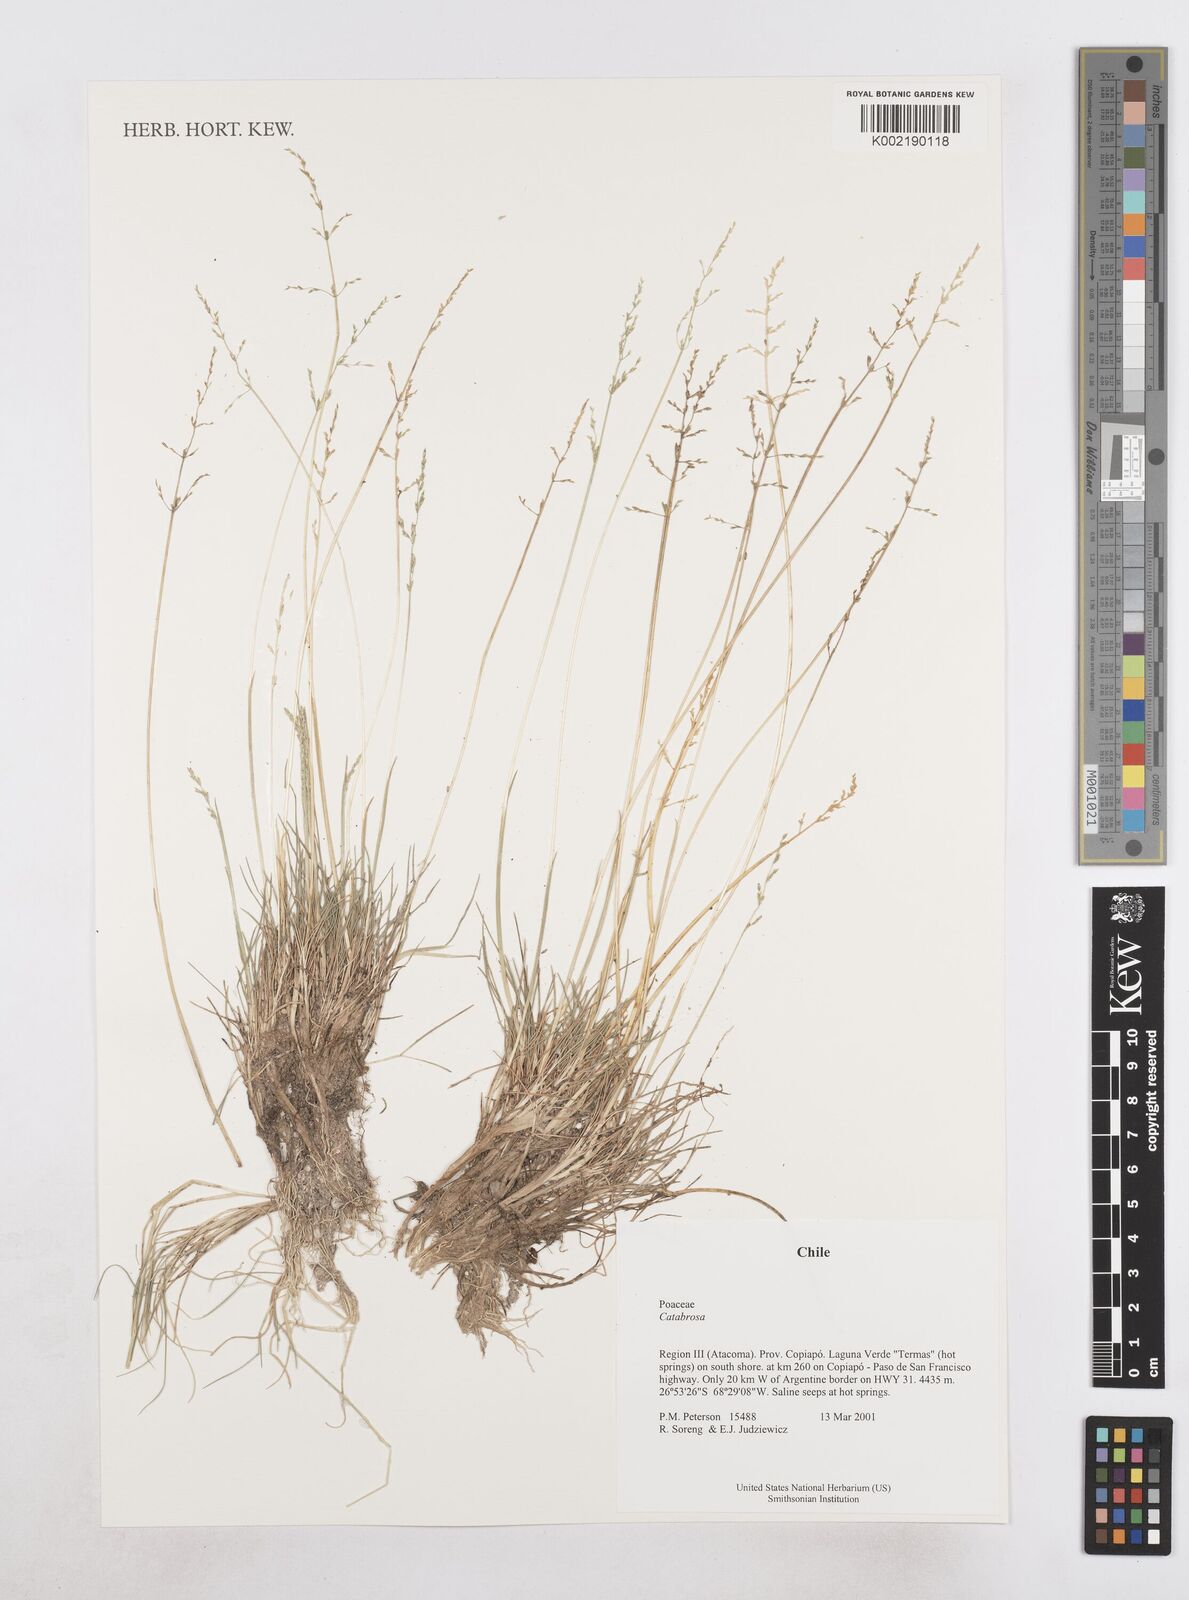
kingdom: Plantae
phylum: Tracheophyta
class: Liliopsida
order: Poales
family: Poaceae
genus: Catabrosa
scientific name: Catabrosa
